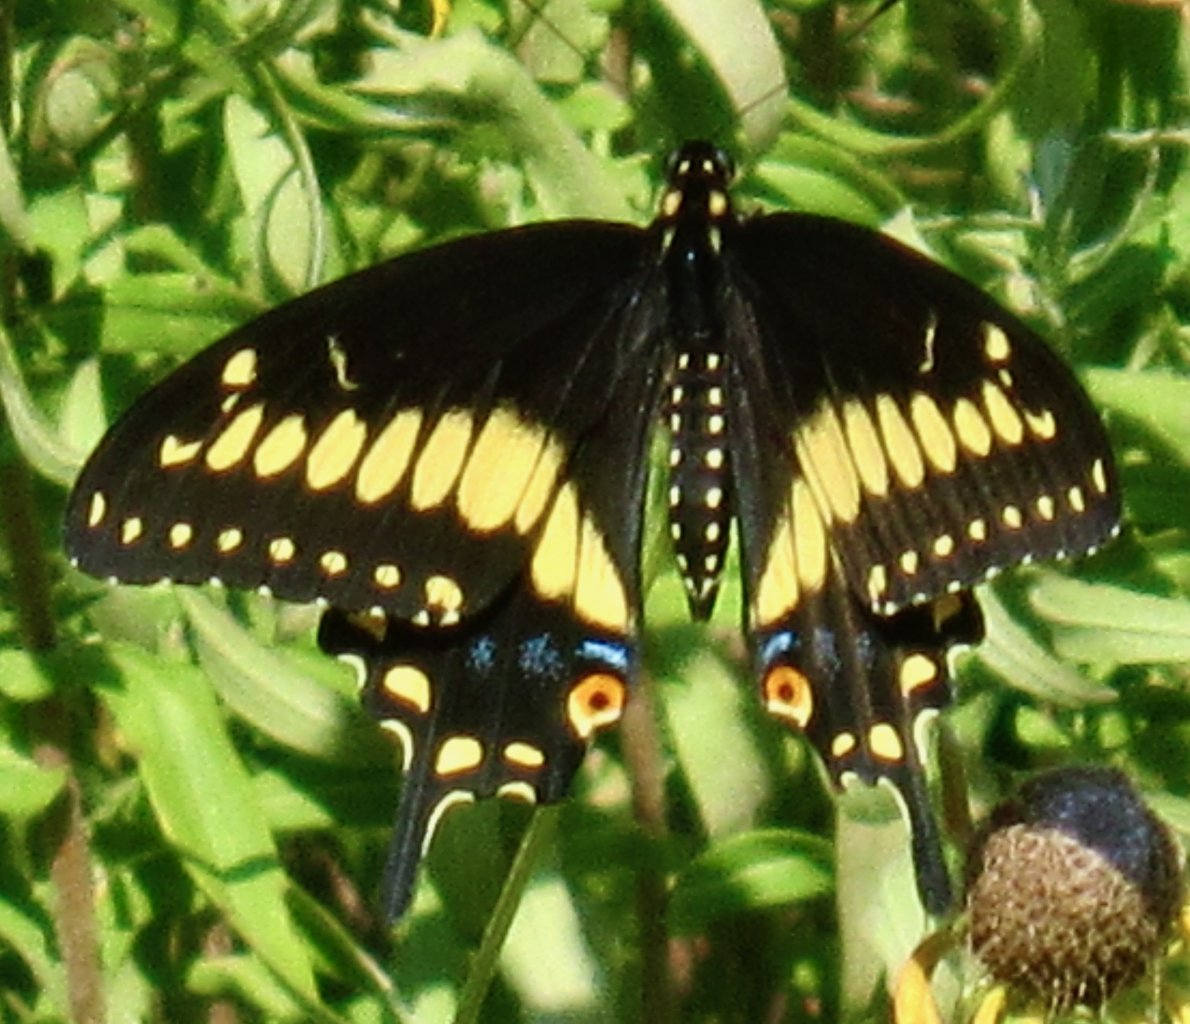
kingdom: Animalia
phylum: Arthropoda
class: Insecta
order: Lepidoptera
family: Papilionidae
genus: Papilio
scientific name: Papilio polyxenes
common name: Black Swallowtail
